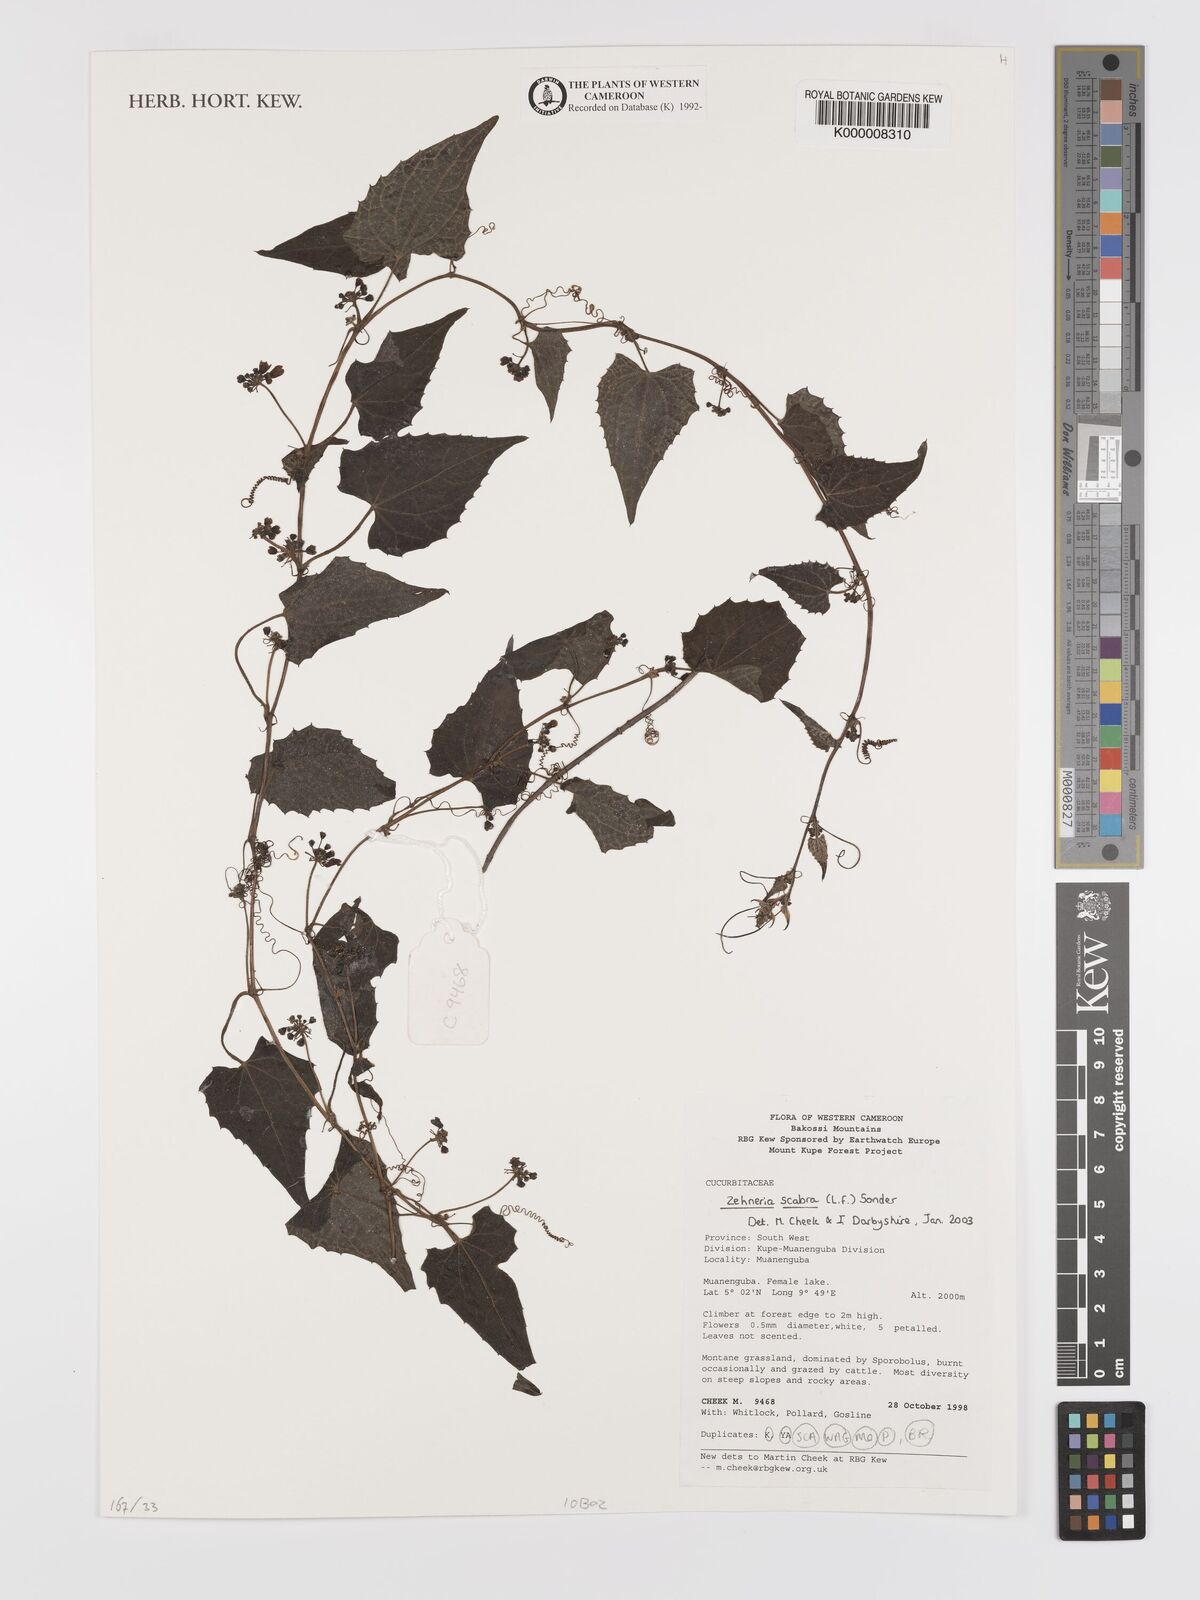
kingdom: Plantae
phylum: Tracheophyta
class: Magnoliopsida
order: Cucurbitales
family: Cucurbitaceae
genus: Zehneria
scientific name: Zehneria scabra
